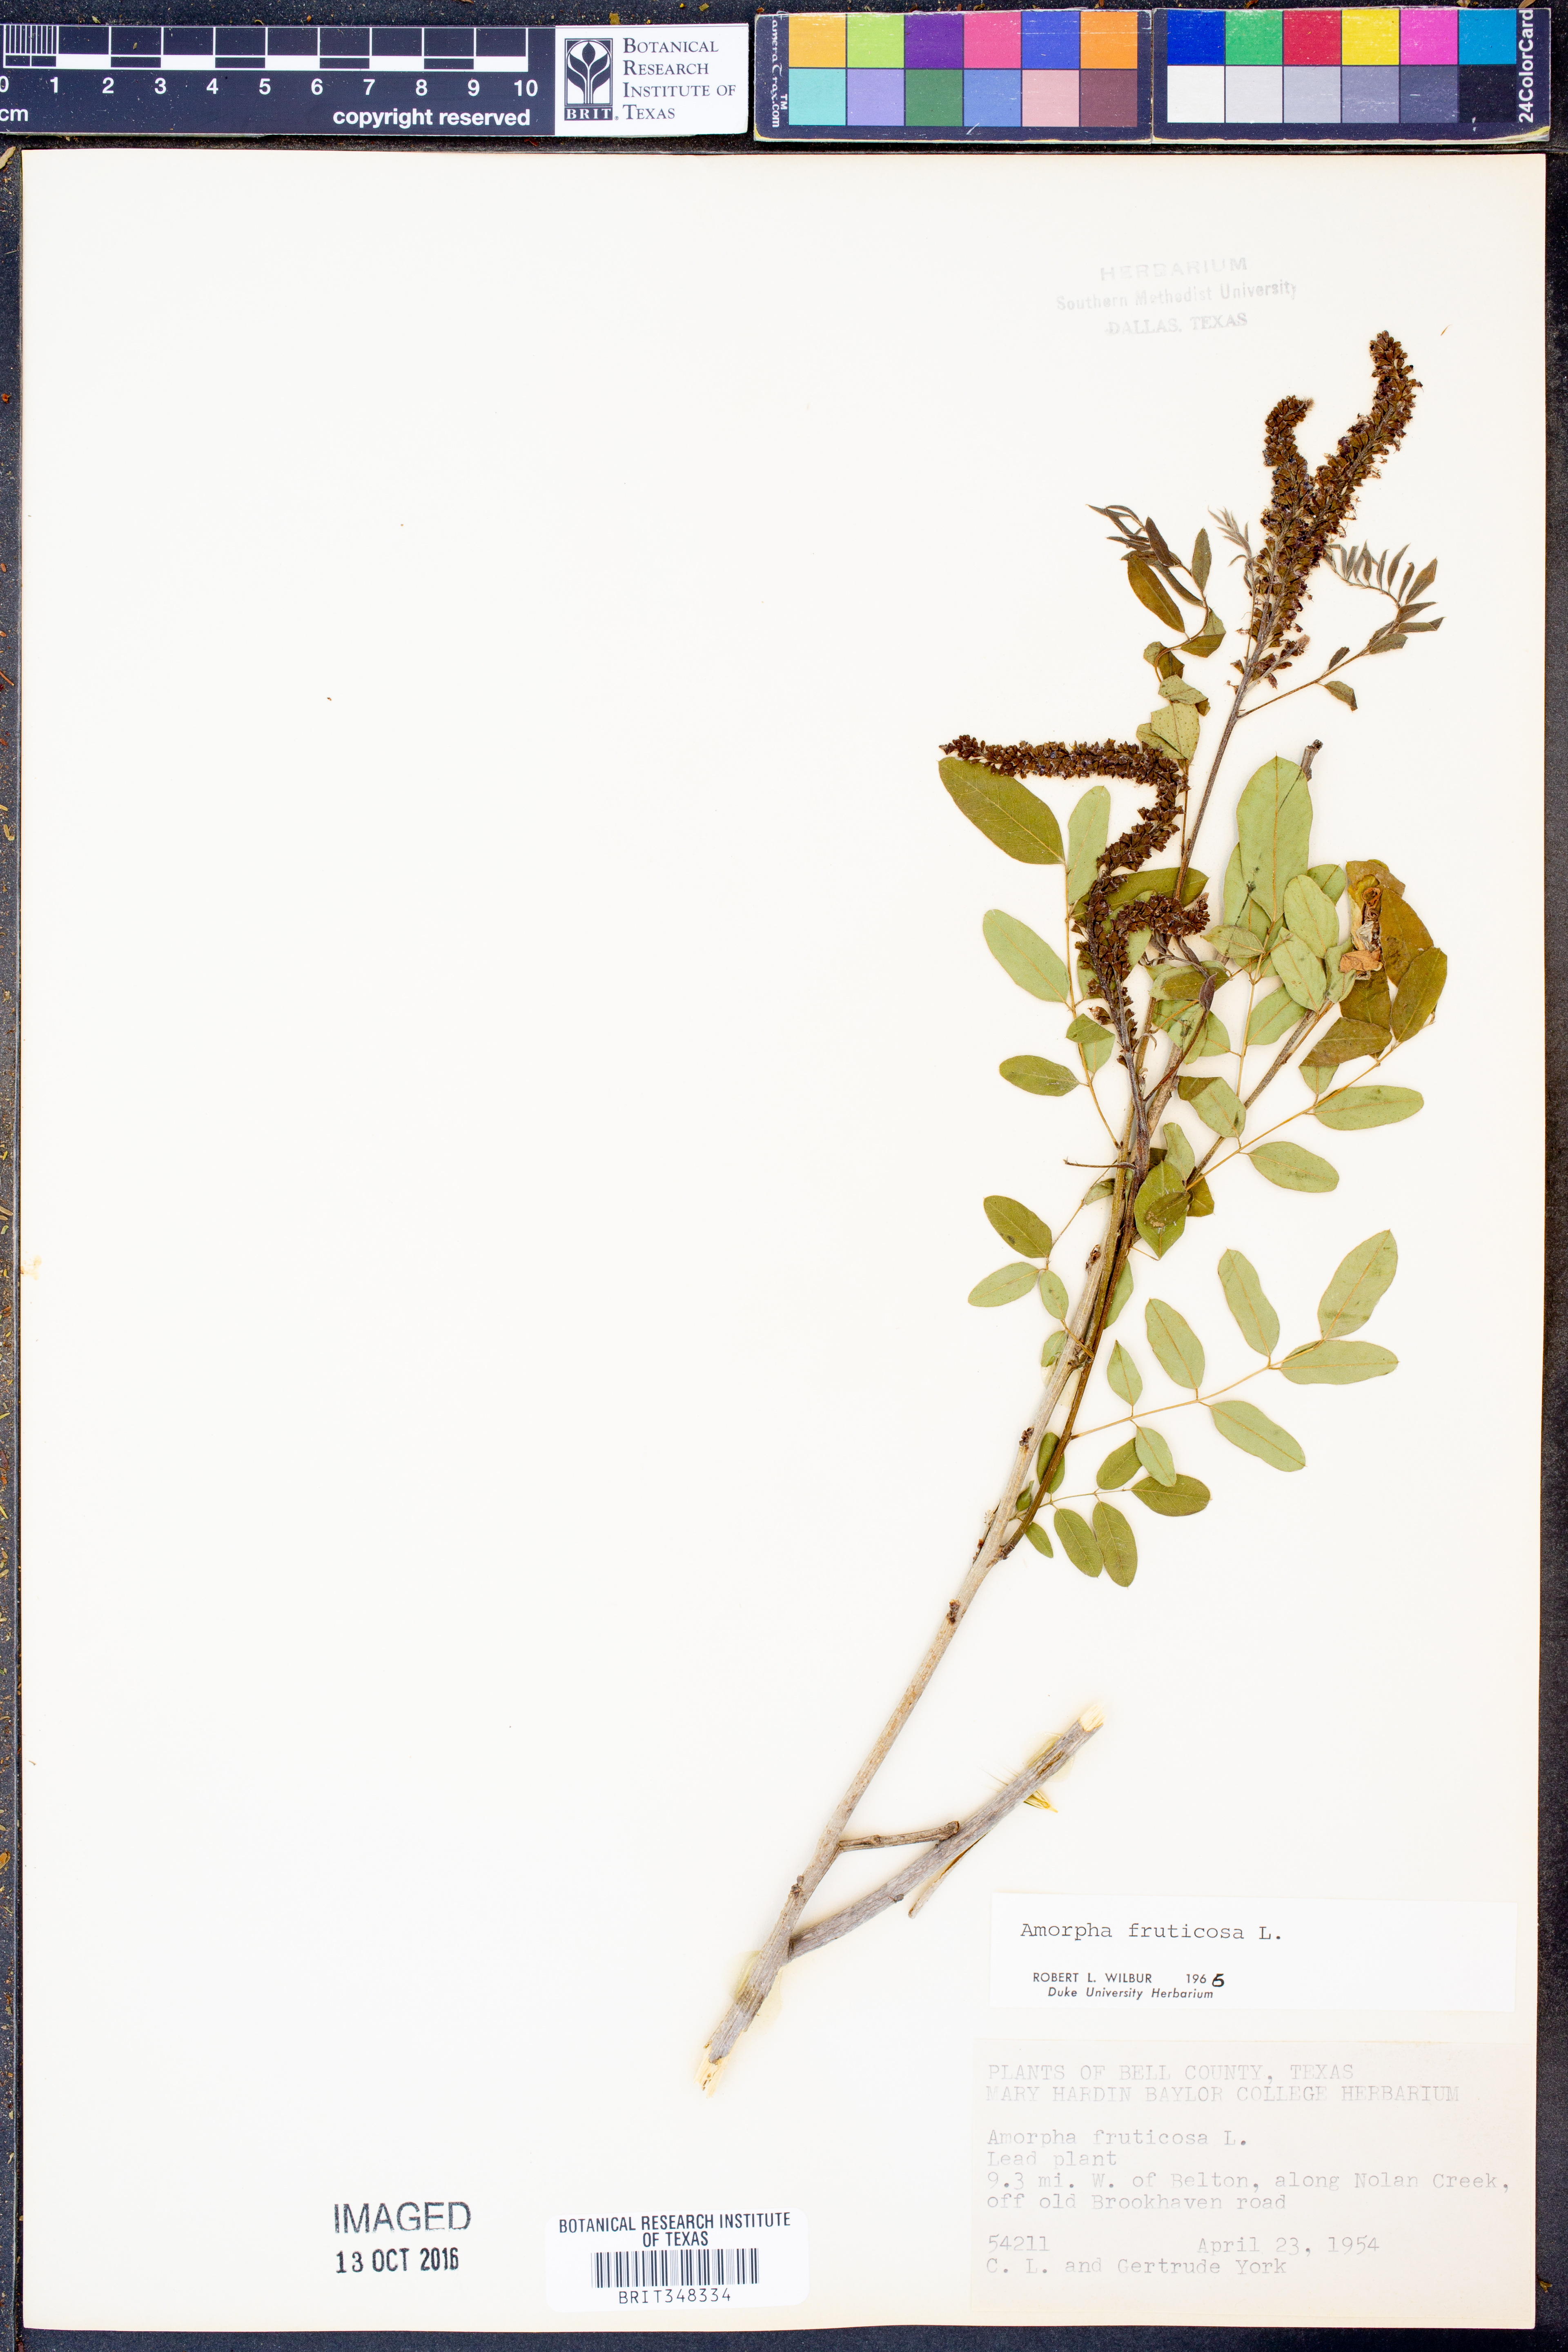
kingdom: Plantae
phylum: Tracheophyta
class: Magnoliopsida
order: Fabales
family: Fabaceae
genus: Amorpha
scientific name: Amorpha fruticosa
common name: False indigo
